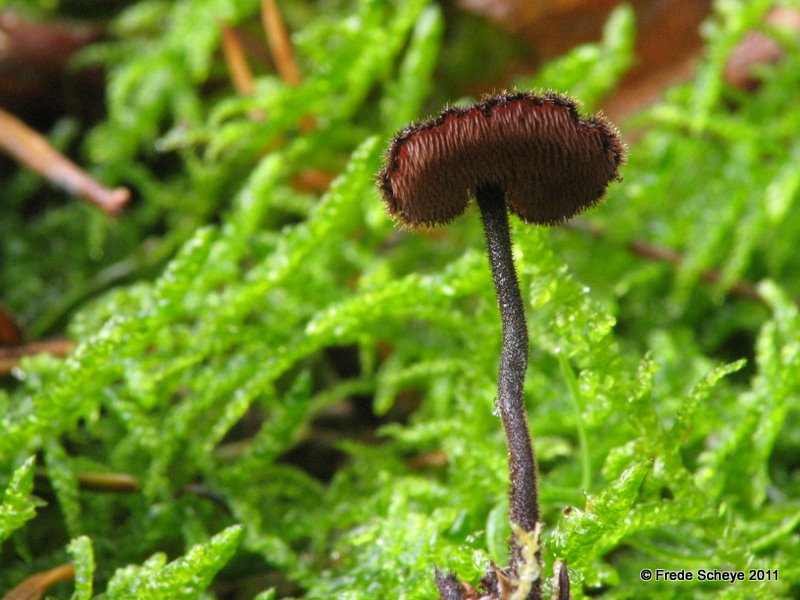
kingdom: Fungi
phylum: Basidiomycota
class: Agaricomycetes
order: Russulales
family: Auriscalpiaceae
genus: Auriscalpium
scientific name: Auriscalpium vulgare
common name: koglepigsvamp
